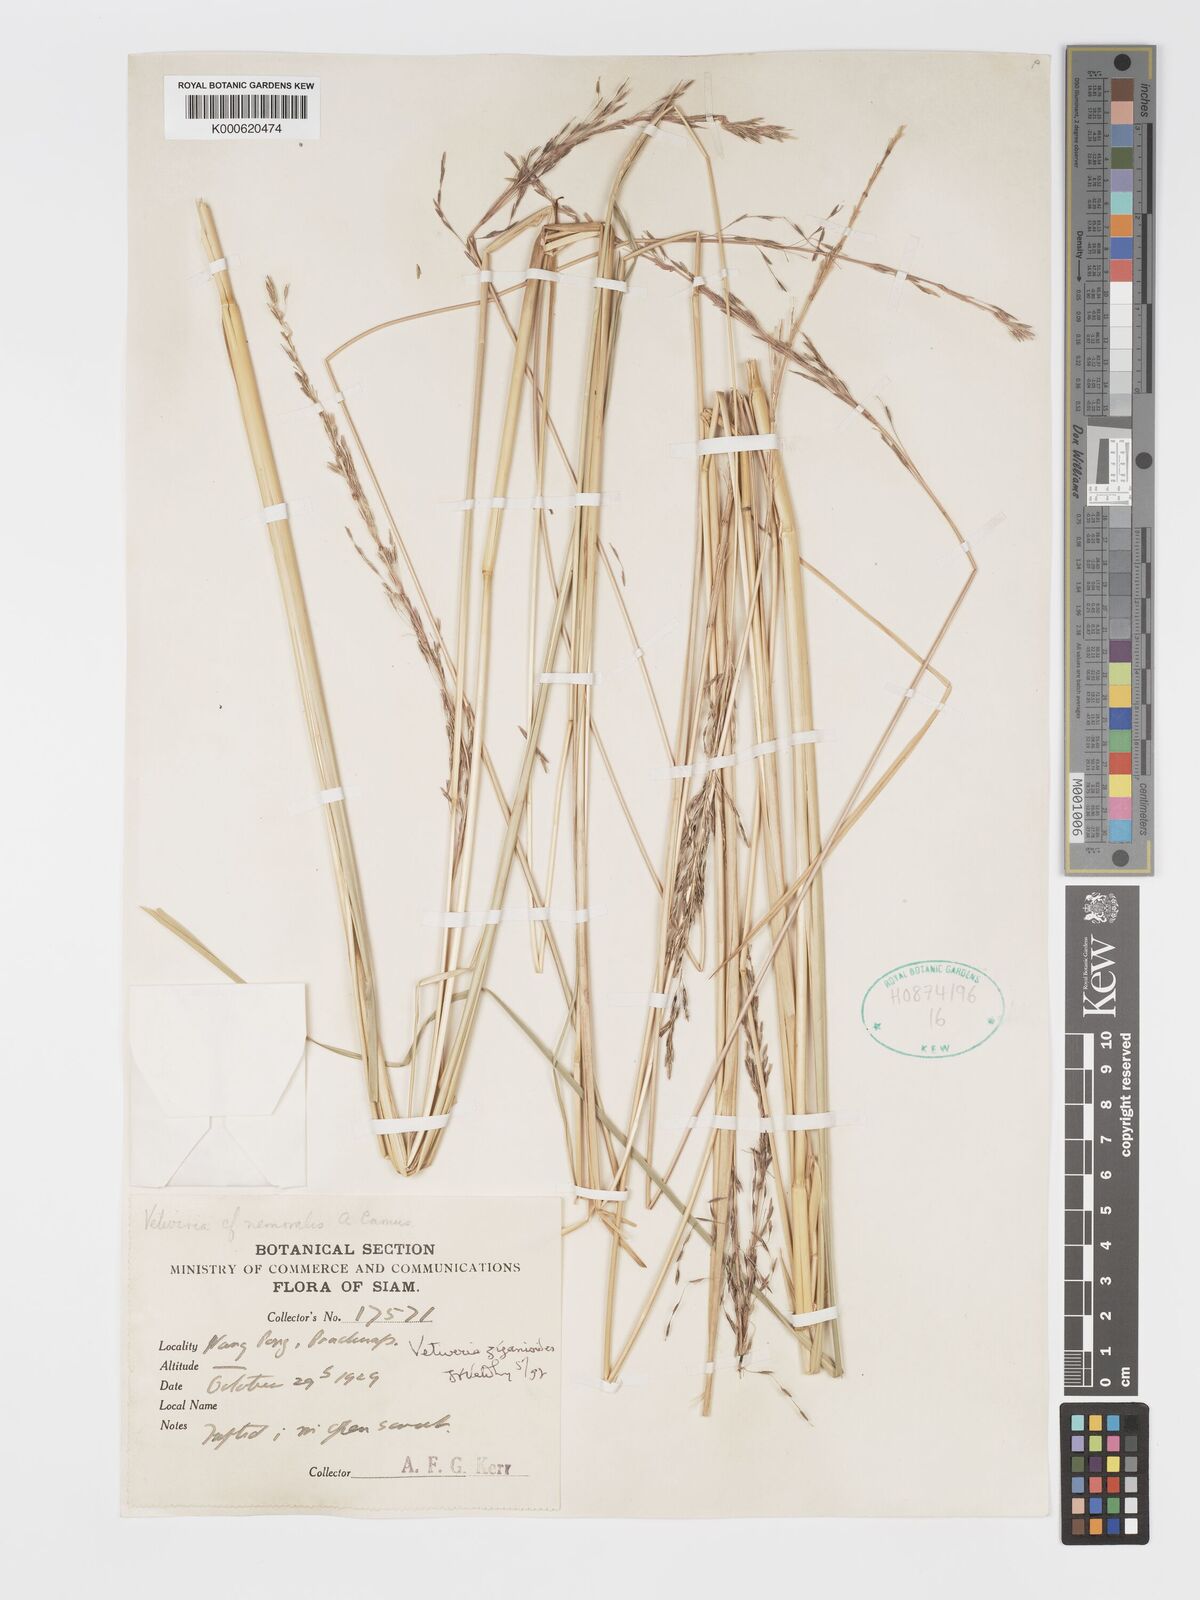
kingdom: Plantae
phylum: Tracheophyta
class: Liliopsida
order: Poales
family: Poaceae
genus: Chrysopogon
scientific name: Chrysopogon zizanioides
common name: False beardgrass
